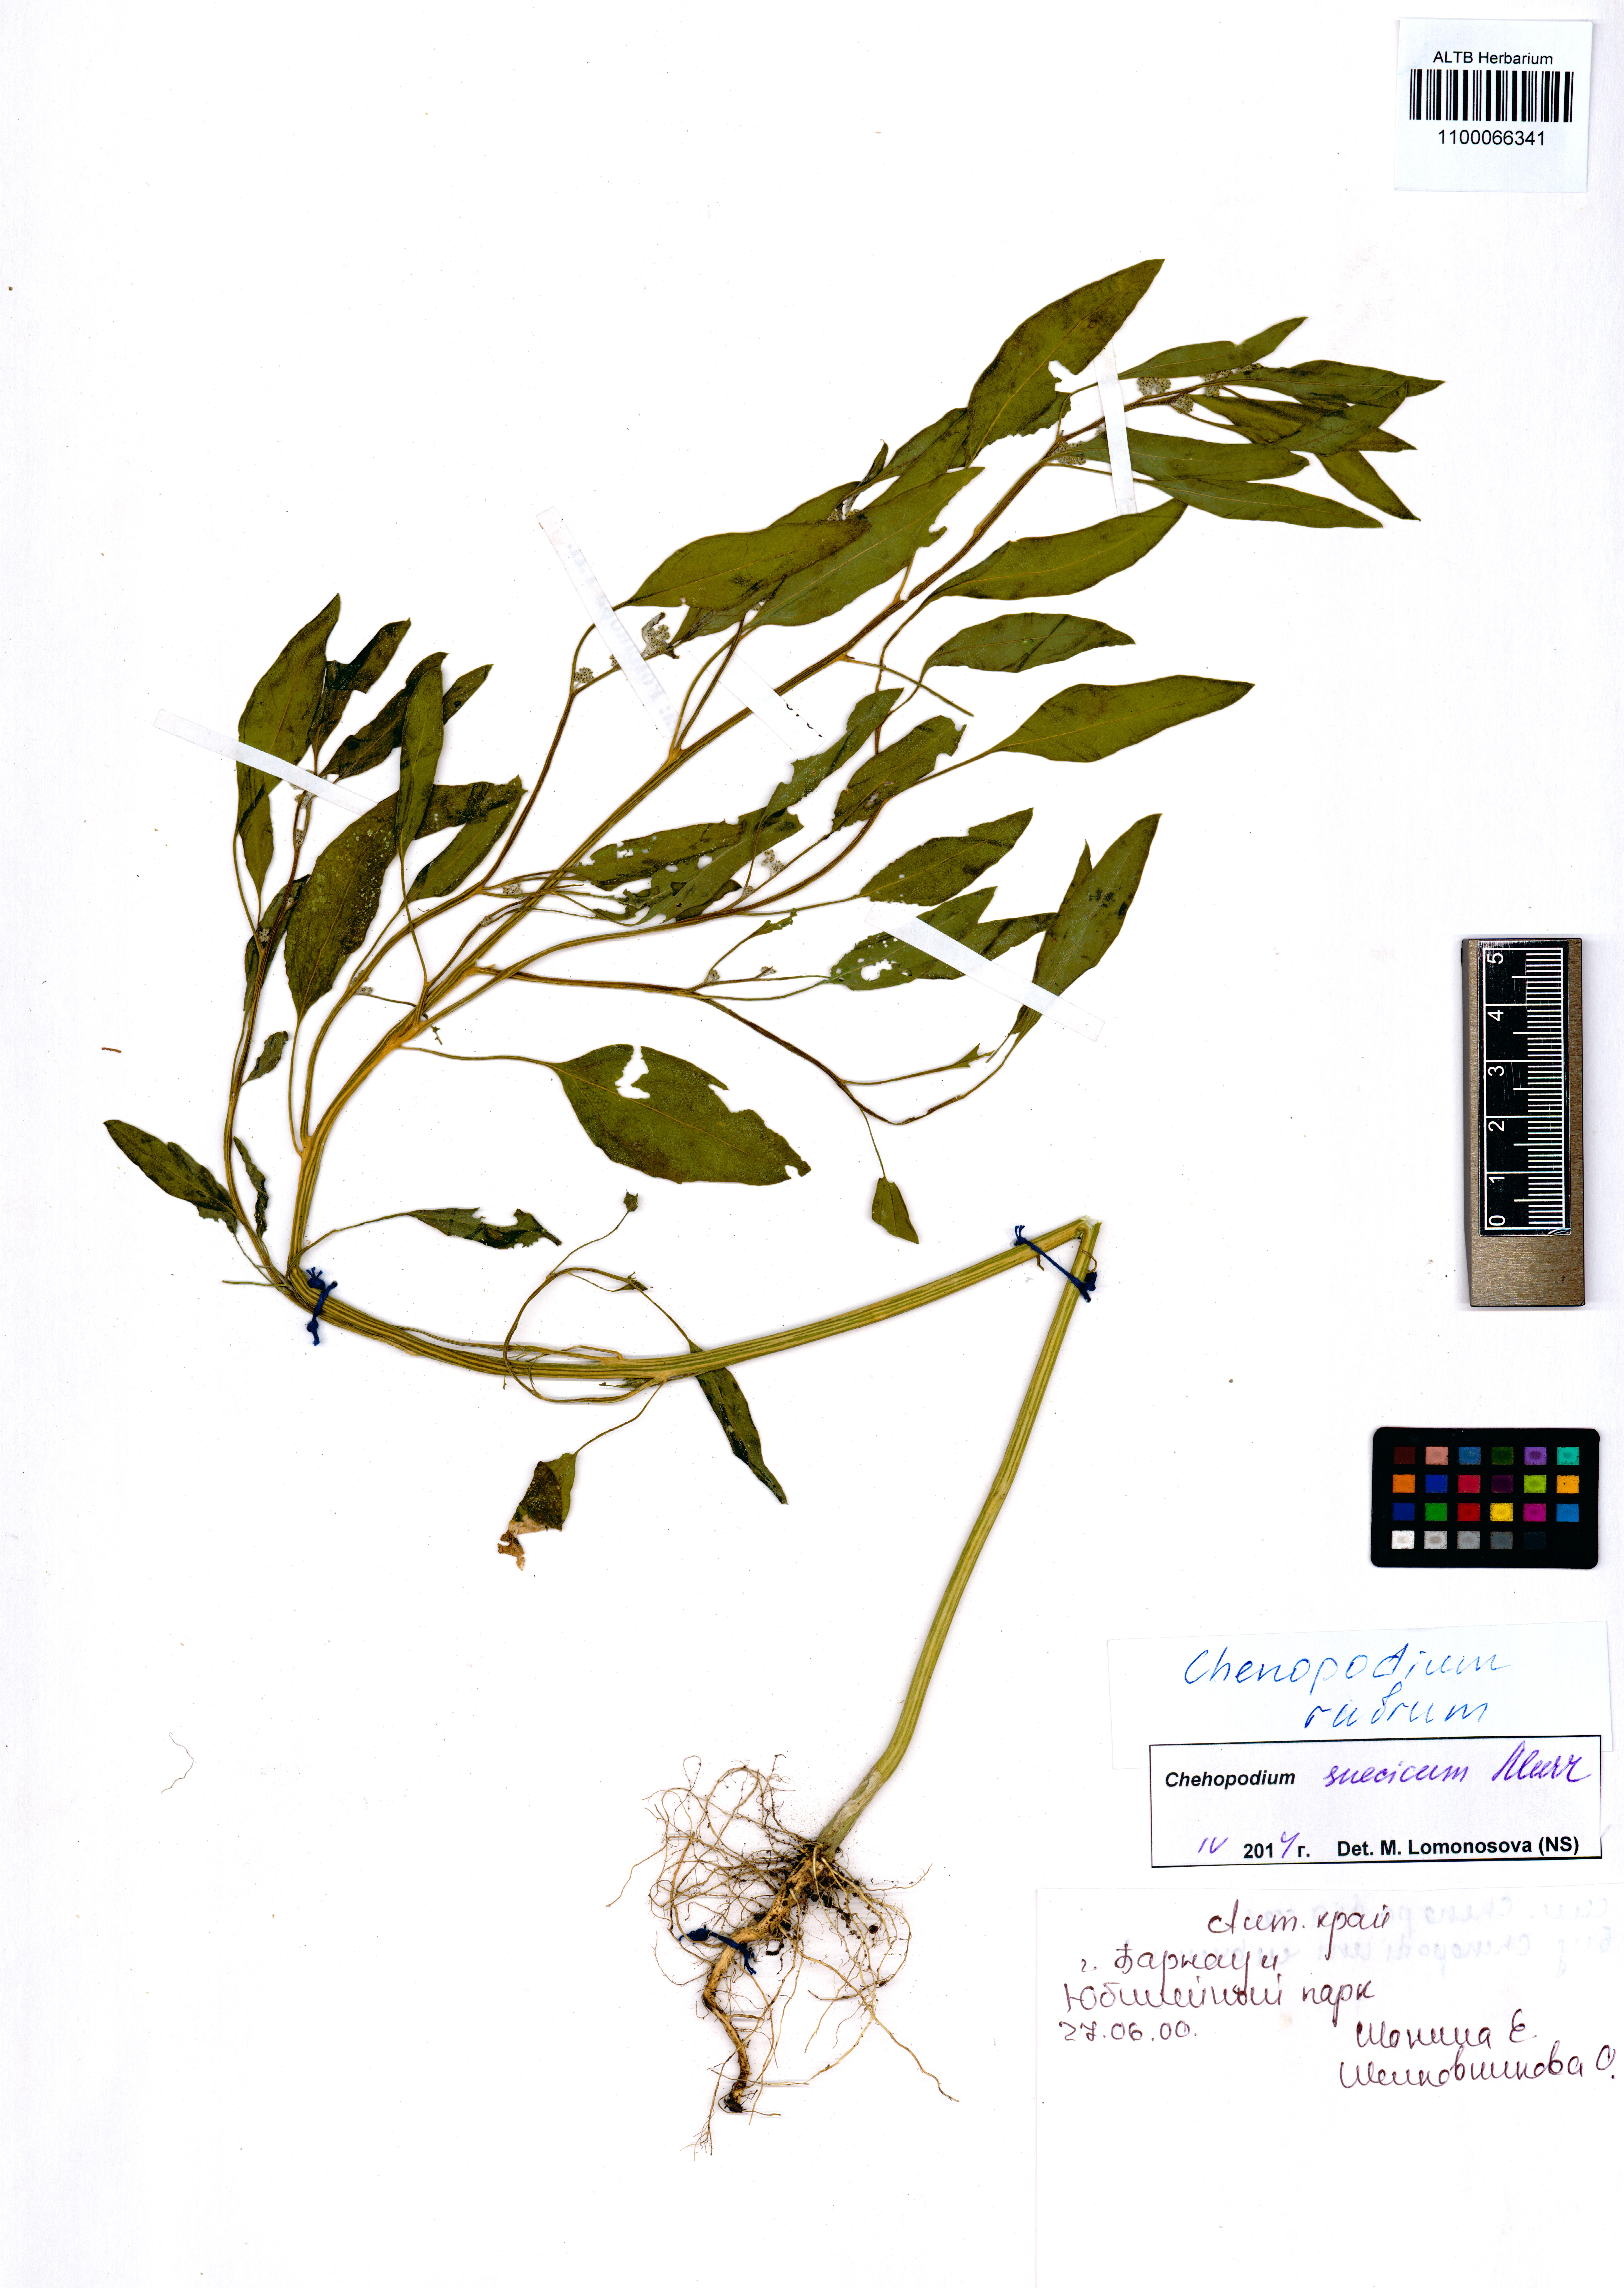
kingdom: Plantae
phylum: Tracheophyta
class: Magnoliopsida
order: Caryophyllales
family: Amaranthaceae
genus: Oxybasis
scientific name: Oxybasis rubra
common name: Red goosefoot
